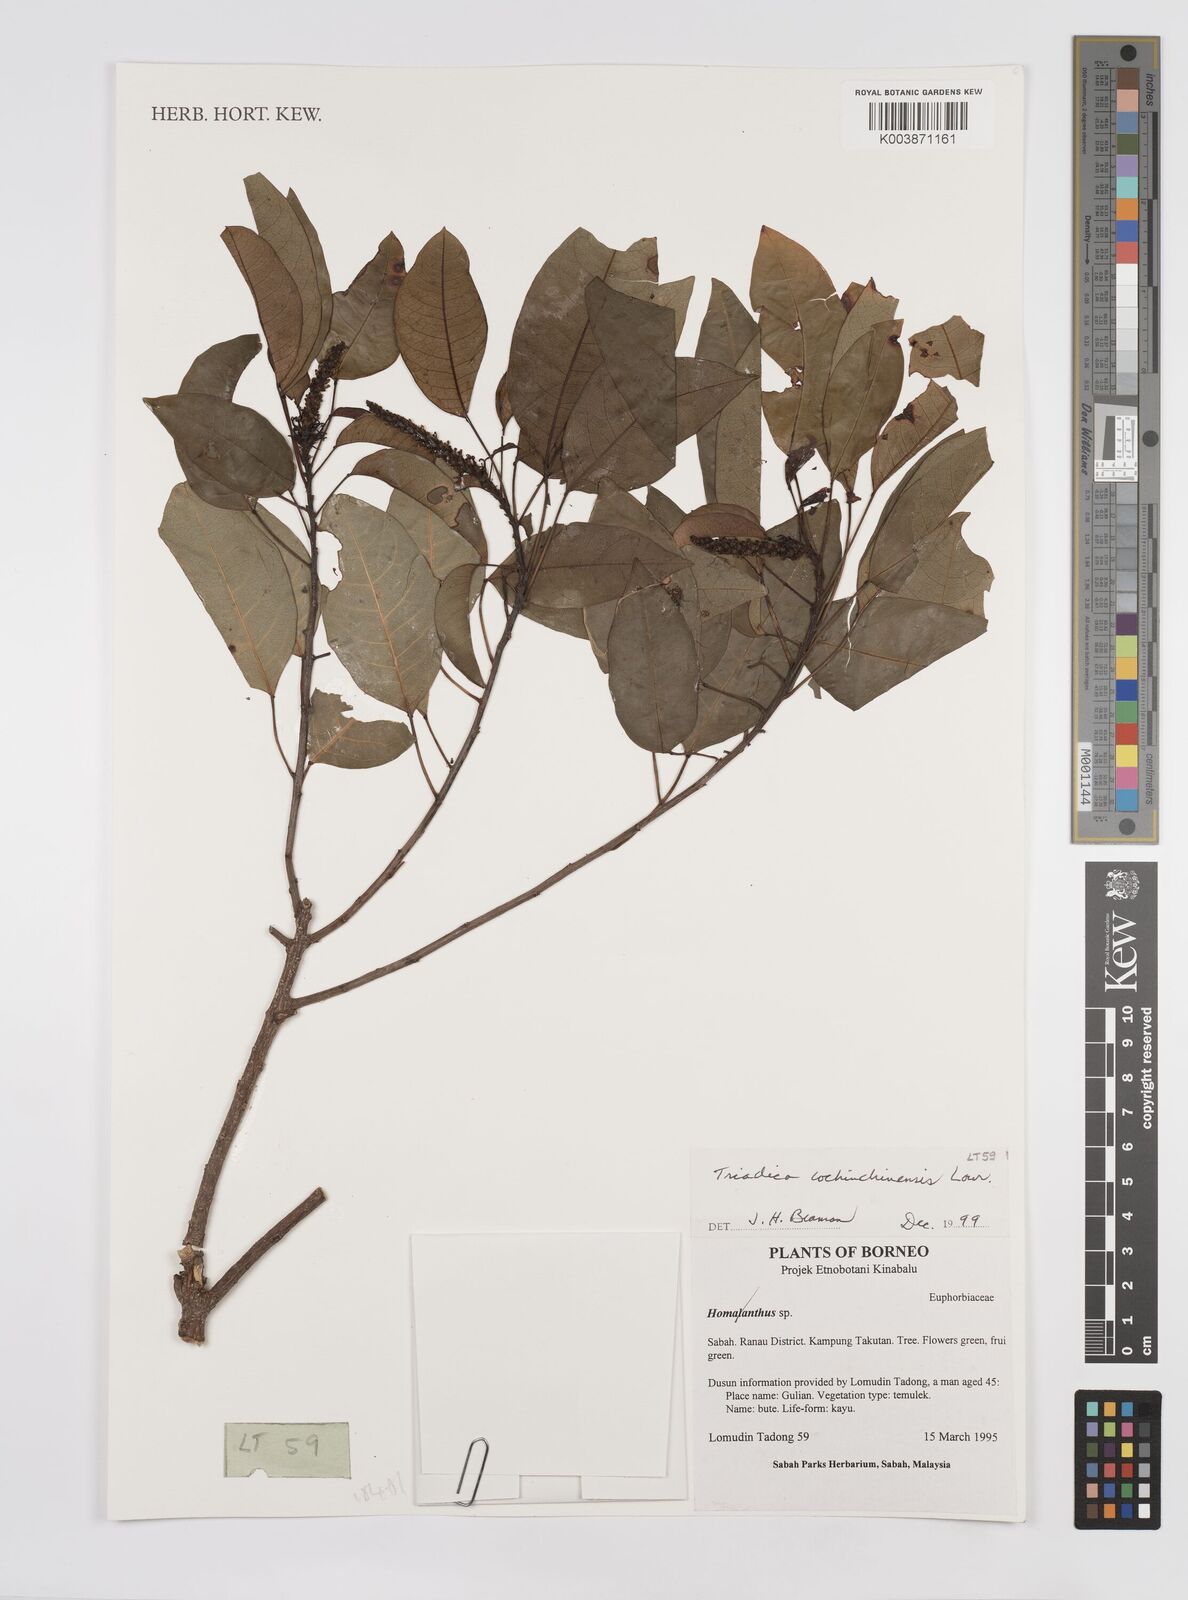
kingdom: Plantae
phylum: Tracheophyta
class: Magnoliopsida
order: Malpighiales
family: Euphorbiaceae
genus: Triadica
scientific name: Triadica cochinchinensis
